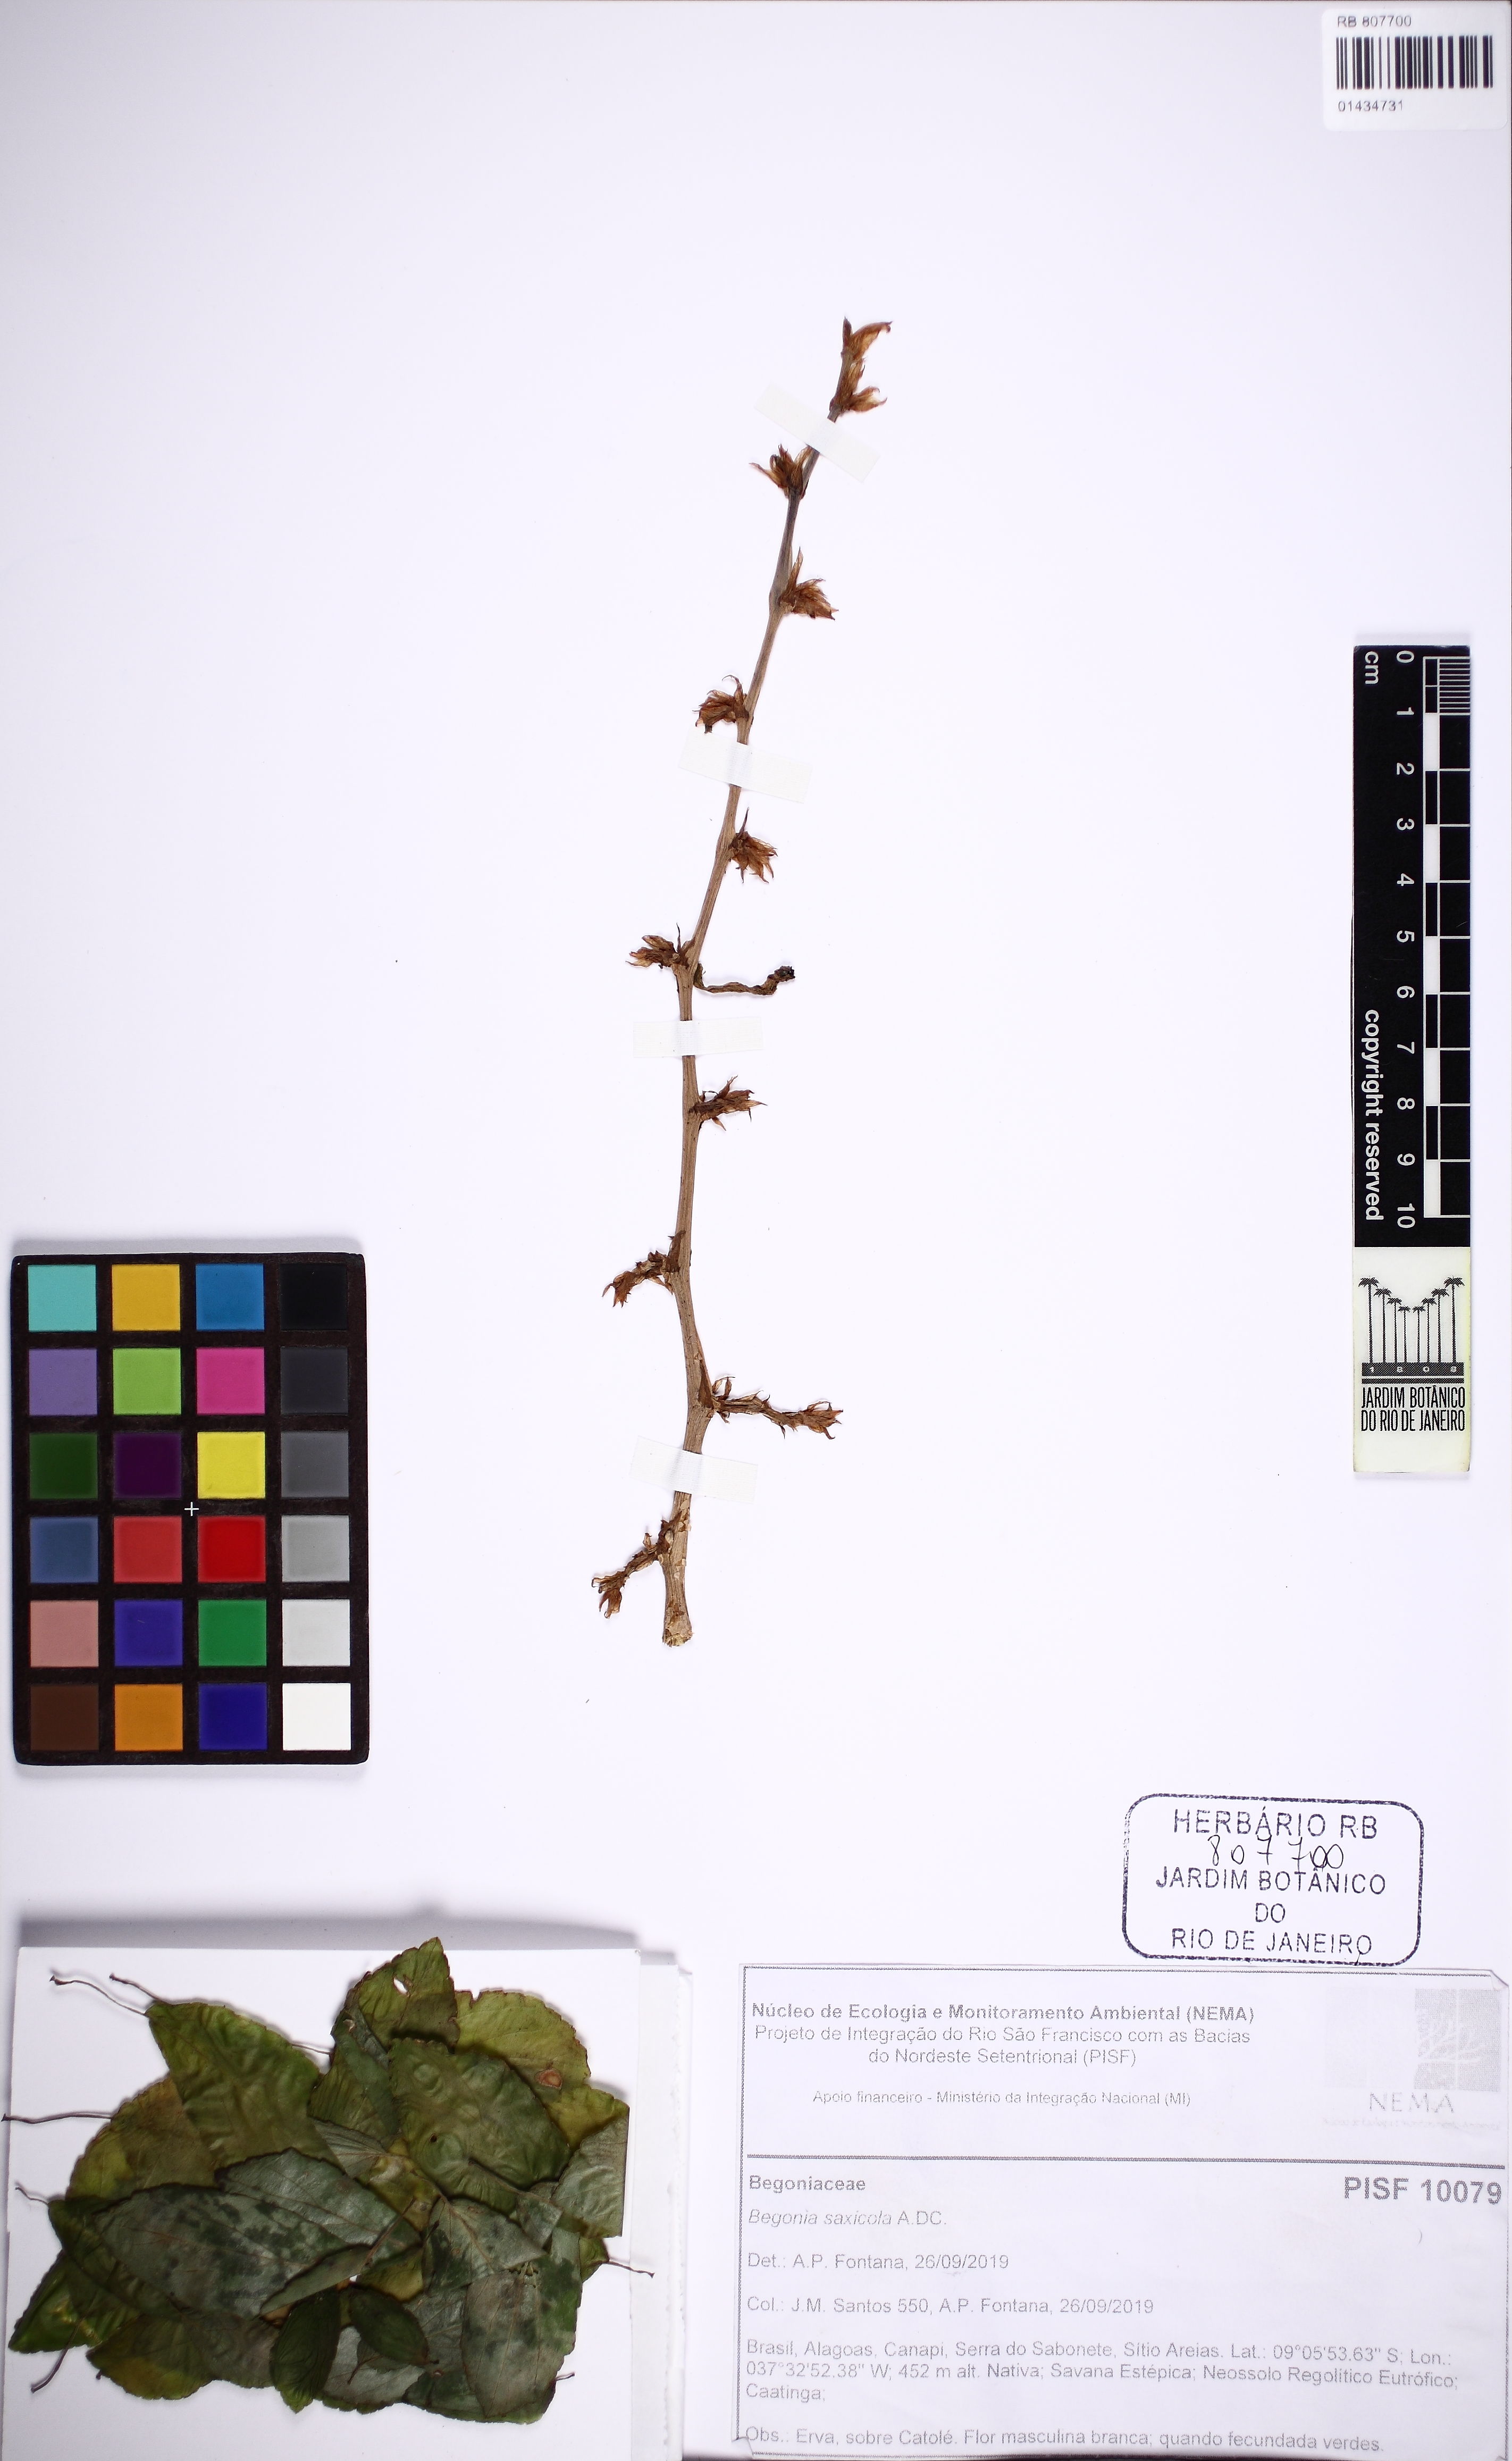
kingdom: Plantae
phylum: Tracheophyta
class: Magnoliopsida
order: Cucurbitales
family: Begoniaceae
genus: Begonia
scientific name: Begonia saxicola
